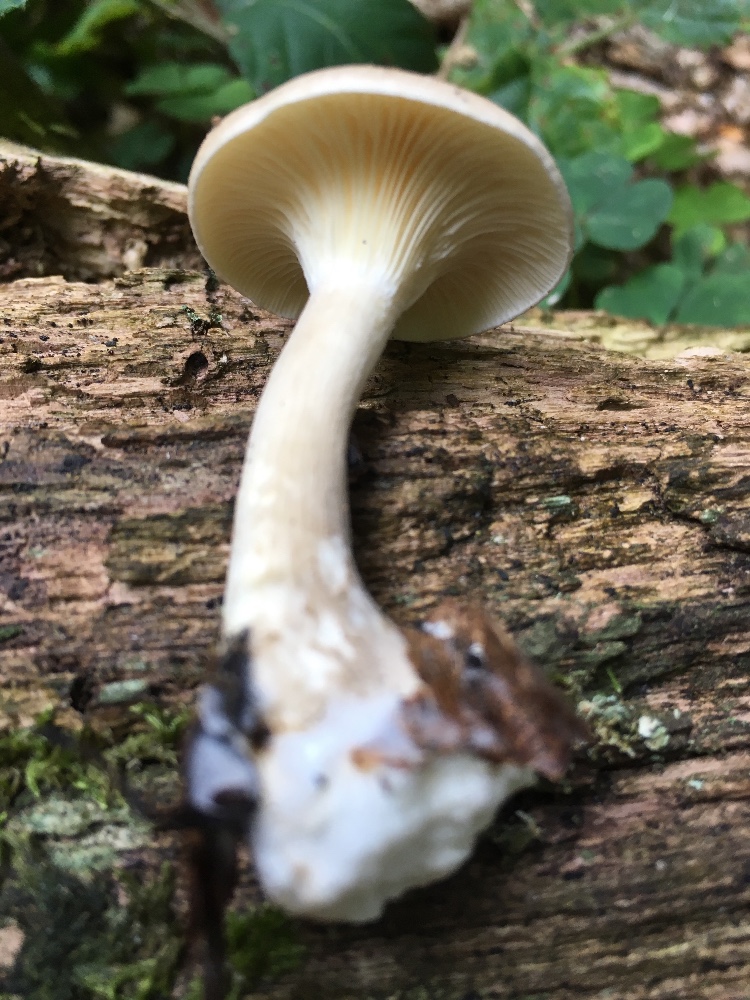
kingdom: Fungi
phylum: Basidiomycota
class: Agaricomycetes
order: Agaricales
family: Hygrophoraceae
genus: Ampulloclitocybe
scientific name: Ampulloclitocybe clavipes
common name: køllefod
